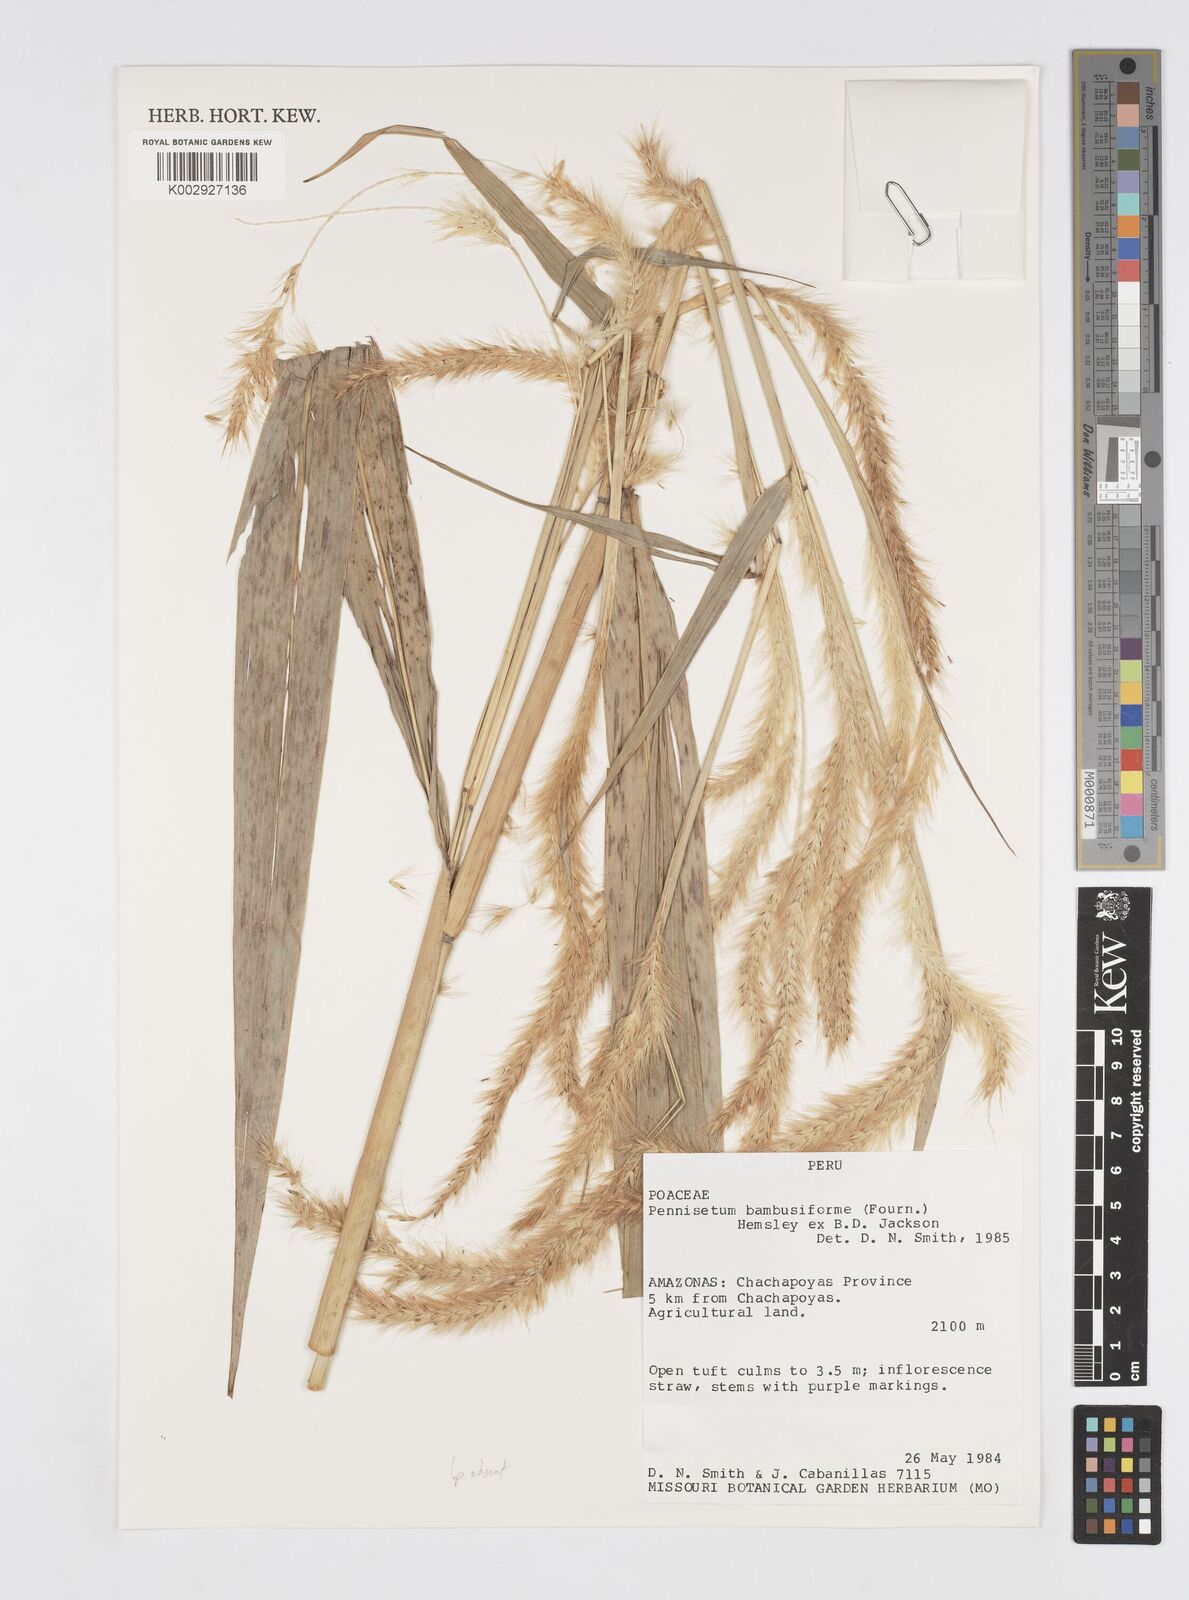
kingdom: Plantae
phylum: Tracheophyta
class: Liliopsida
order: Poales
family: Poaceae
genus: Cenchrus
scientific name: Cenchrus tristachyus
